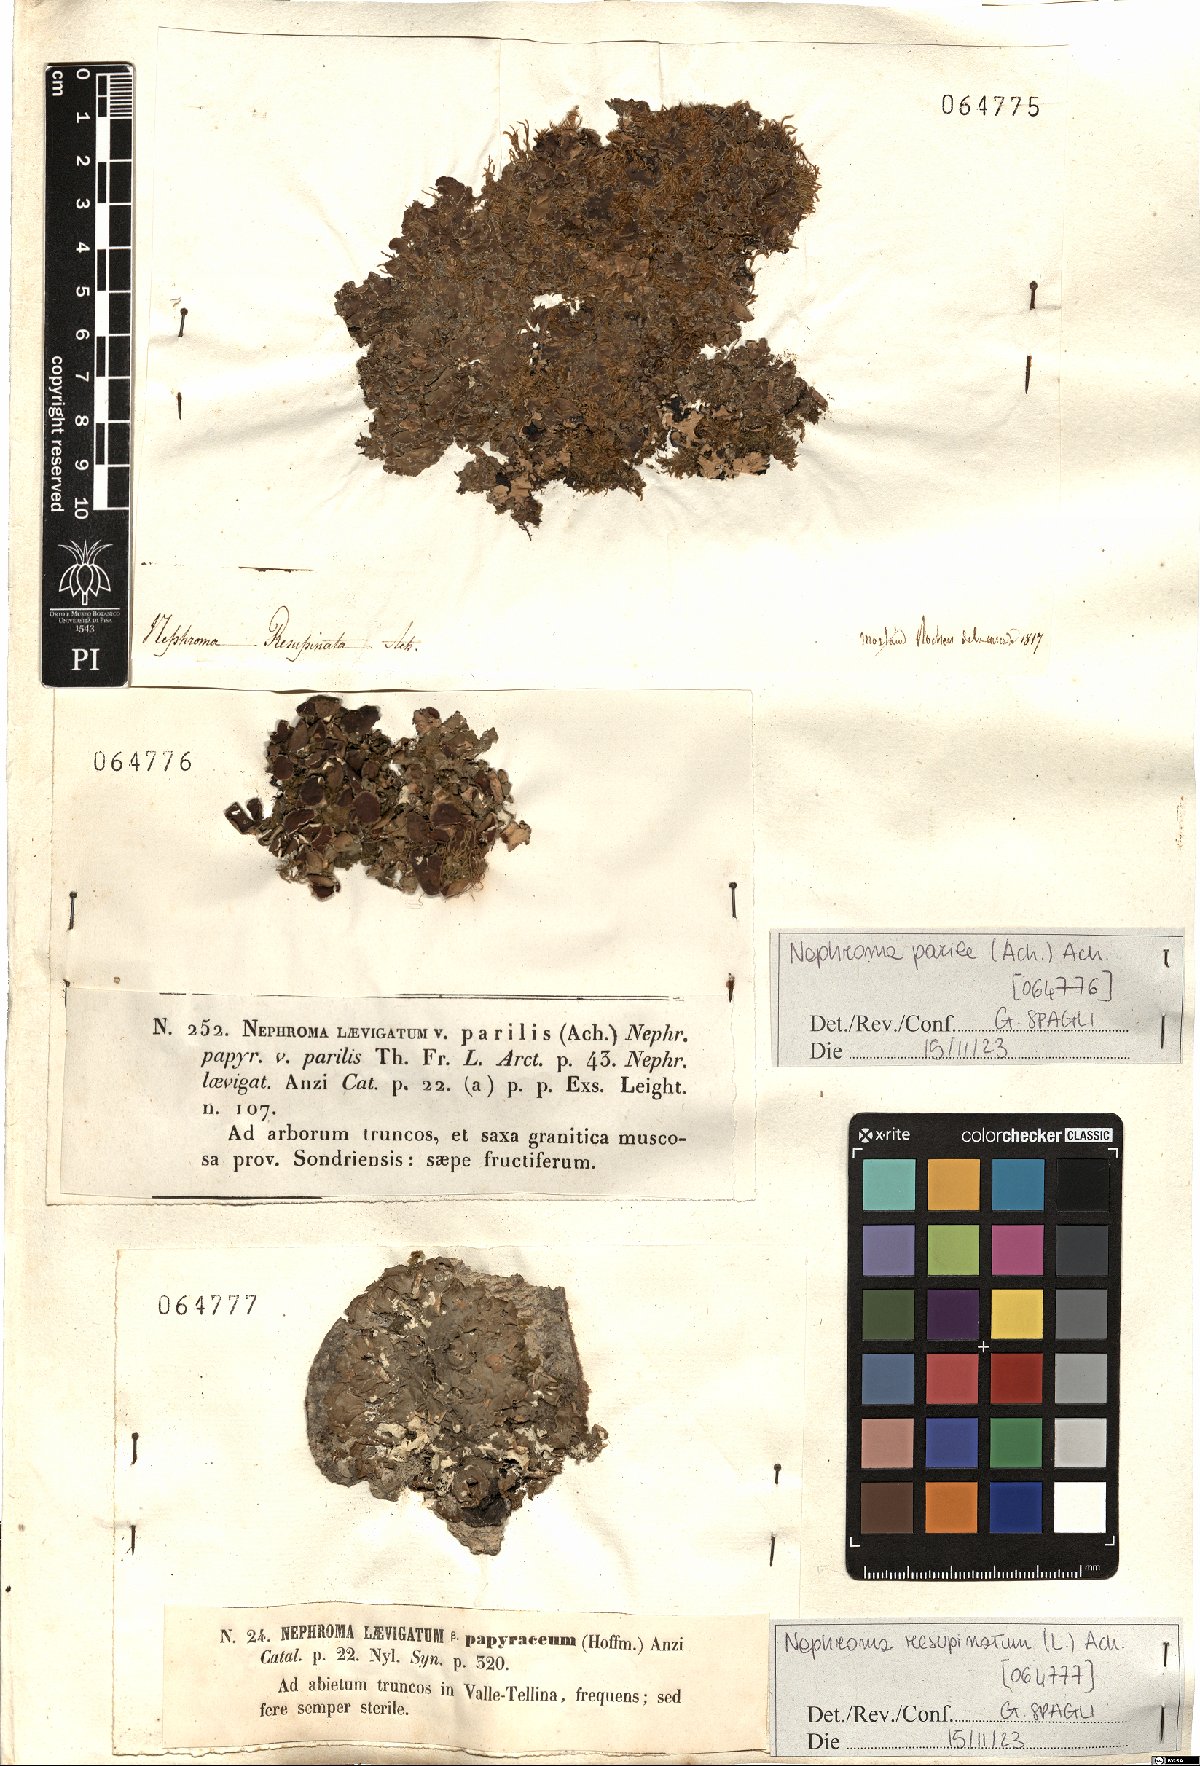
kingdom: Fungi
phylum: Ascomycota
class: Lecanoromycetes
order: Peltigerales
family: Nephromataceae
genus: Nephroma
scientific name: Nephroma resupinatum
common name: Pimpled kidney lichen
